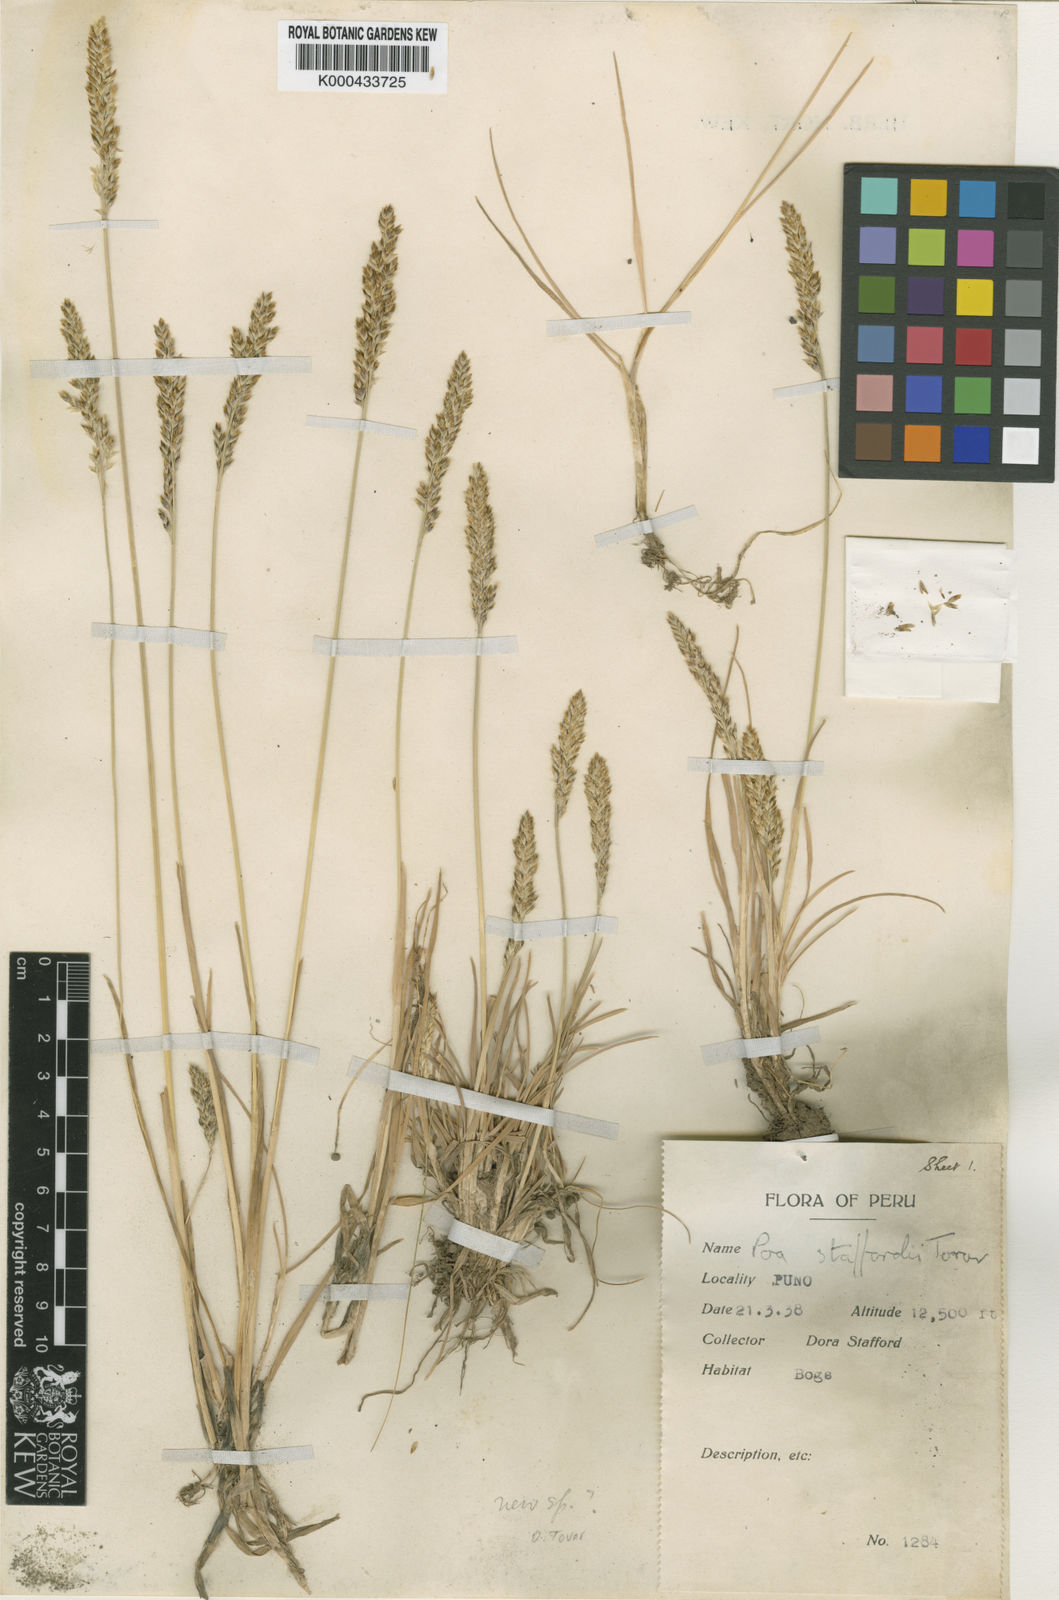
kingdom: Plantae
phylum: Tracheophyta
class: Liliopsida
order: Poales
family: Poaceae
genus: Poa
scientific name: Poa spicigera
